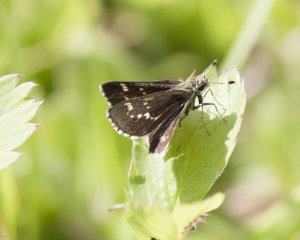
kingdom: Animalia
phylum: Arthropoda
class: Insecta
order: Lepidoptera
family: Hesperiidae
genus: Mastor
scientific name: Mastor hegon
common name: Pepper and Salt Skipper
